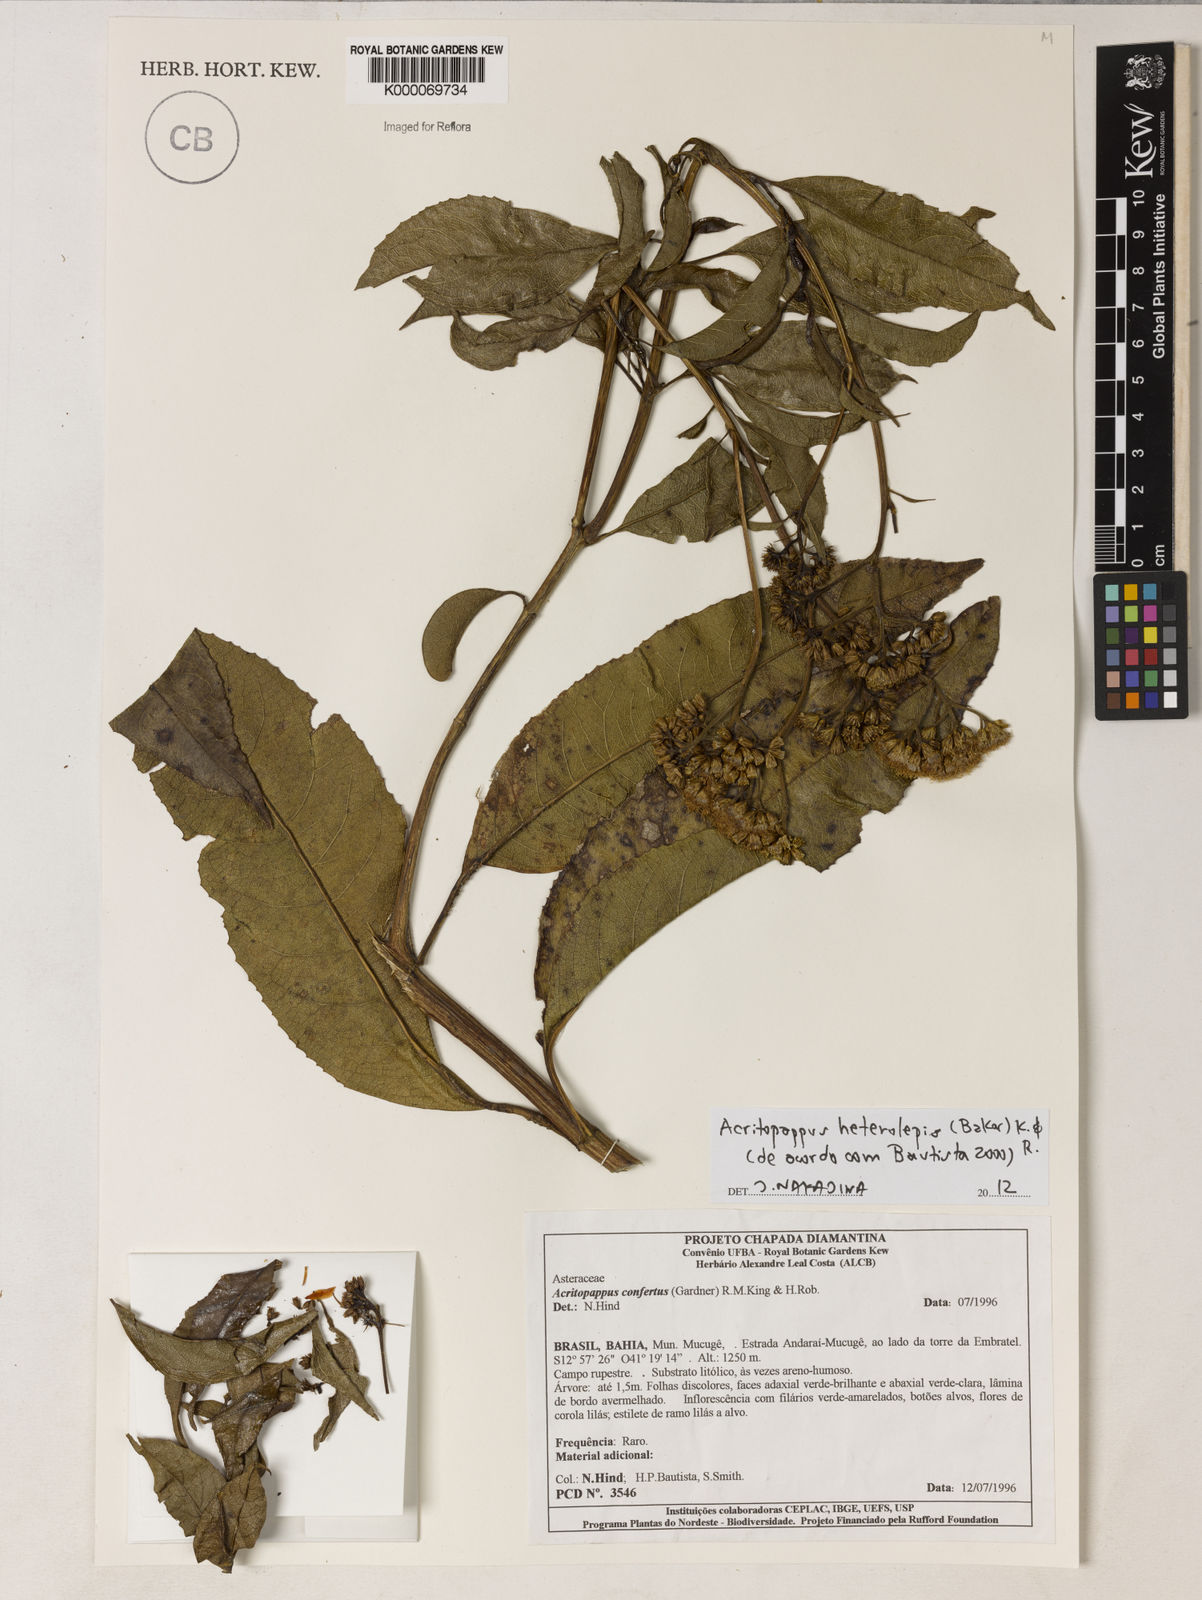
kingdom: Plantae
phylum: Tracheophyta
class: Magnoliopsida
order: Asterales
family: Asteraceae
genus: Acritopappus
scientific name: Acritopappus confertus
